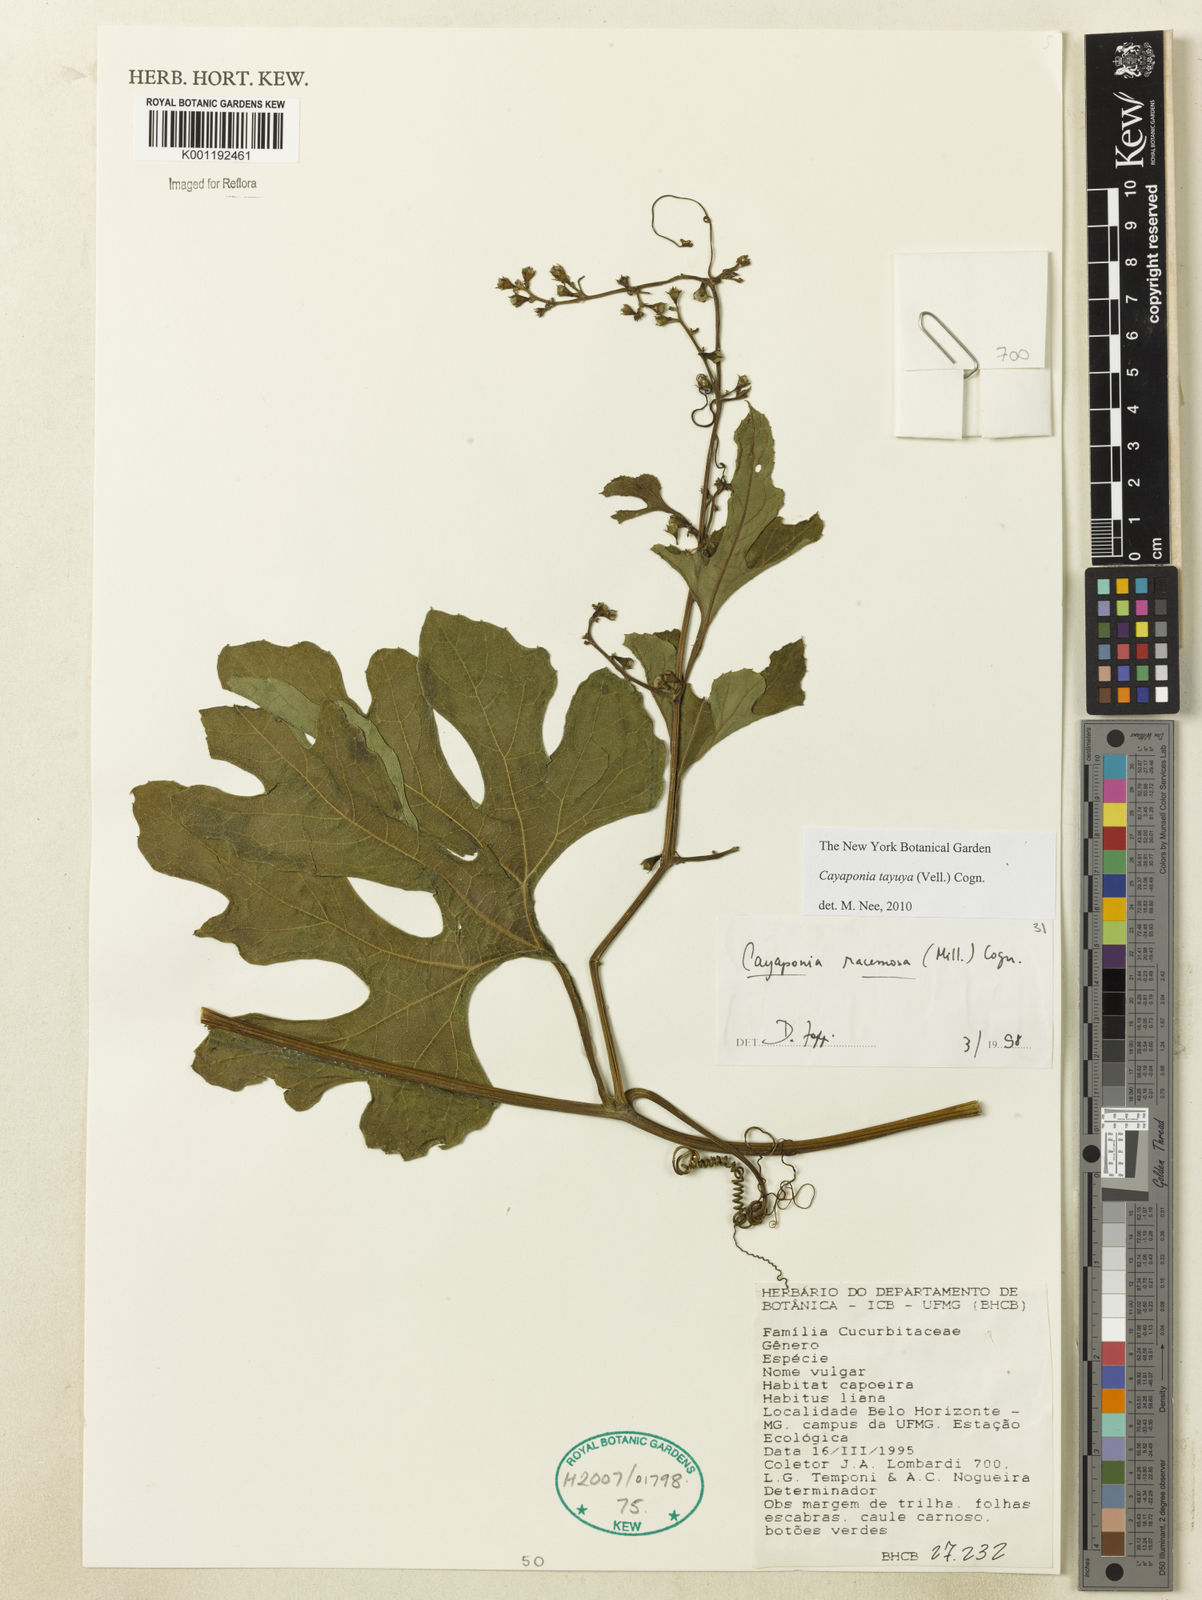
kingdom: Plantae
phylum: Tracheophyta
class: Magnoliopsida
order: Cucurbitales
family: Cucurbitaceae
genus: Cayaponia
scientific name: Cayaponia tayuya
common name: Tayuya
